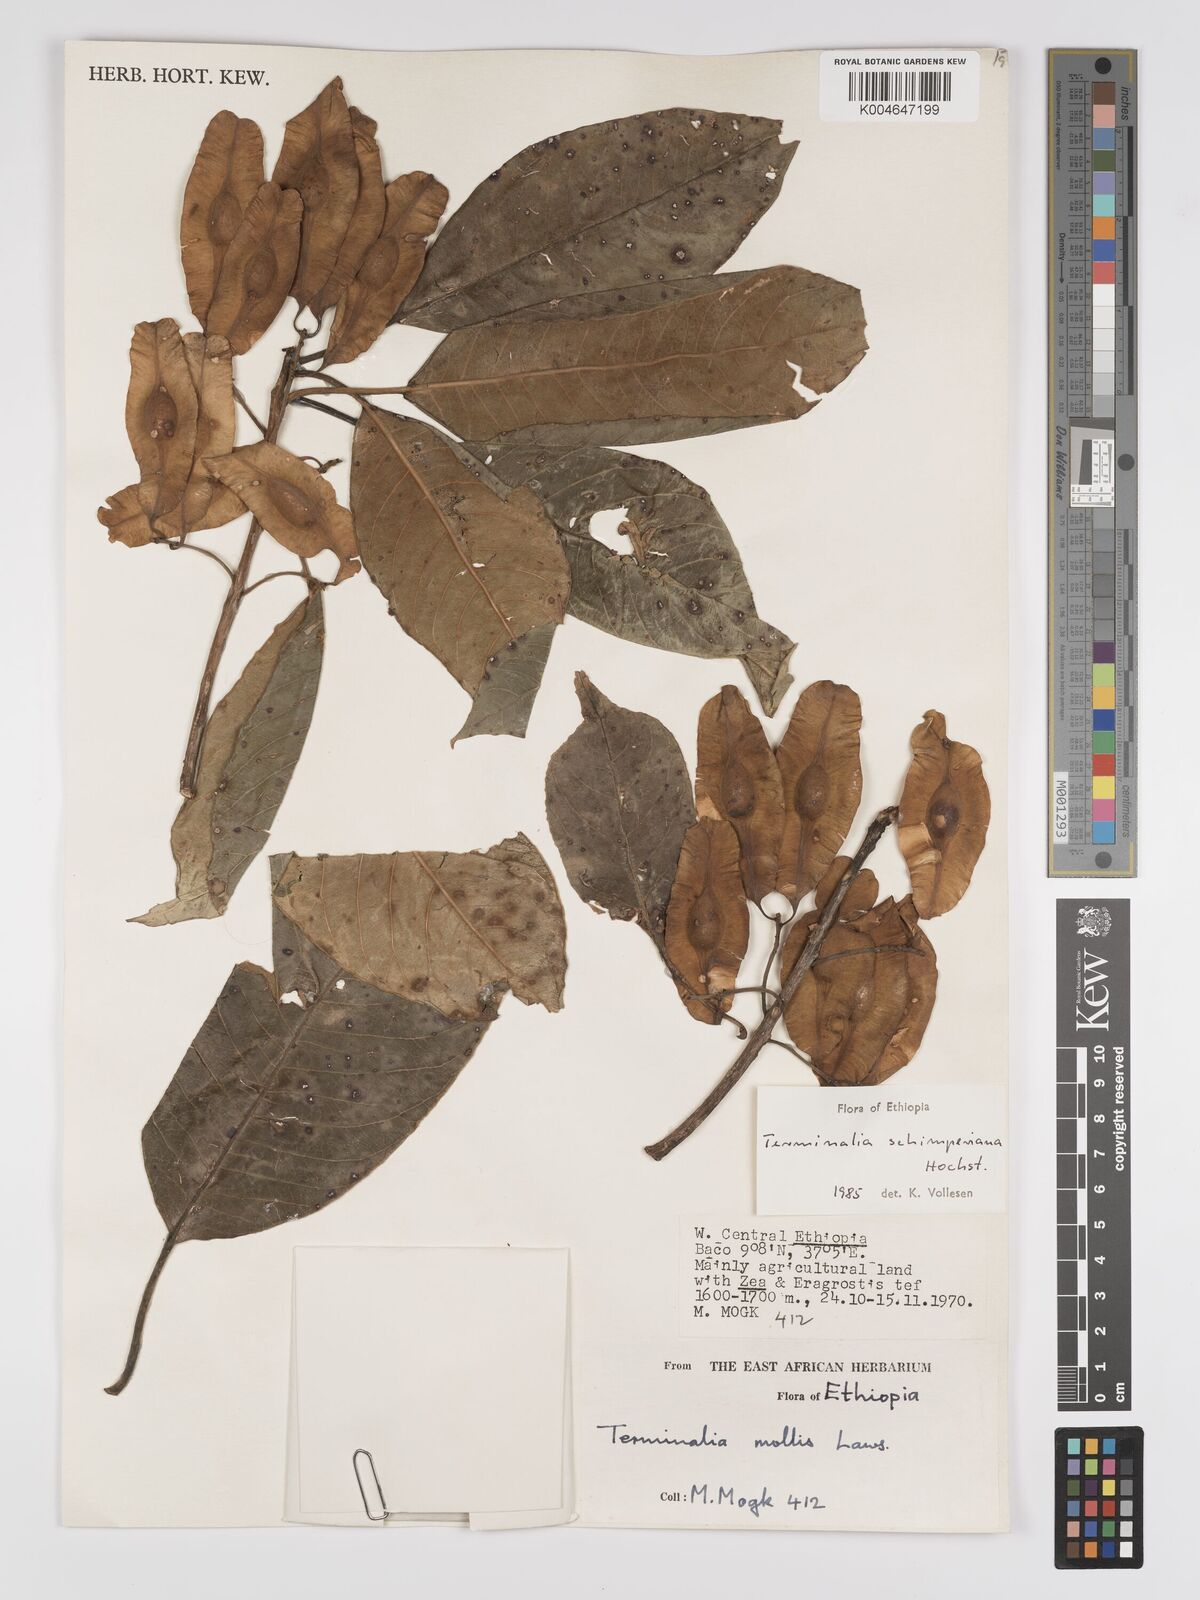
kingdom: Plantae
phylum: Tracheophyta
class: Magnoliopsida
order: Myrtales
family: Combretaceae
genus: Terminalia
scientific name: Terminalia schimperiana
